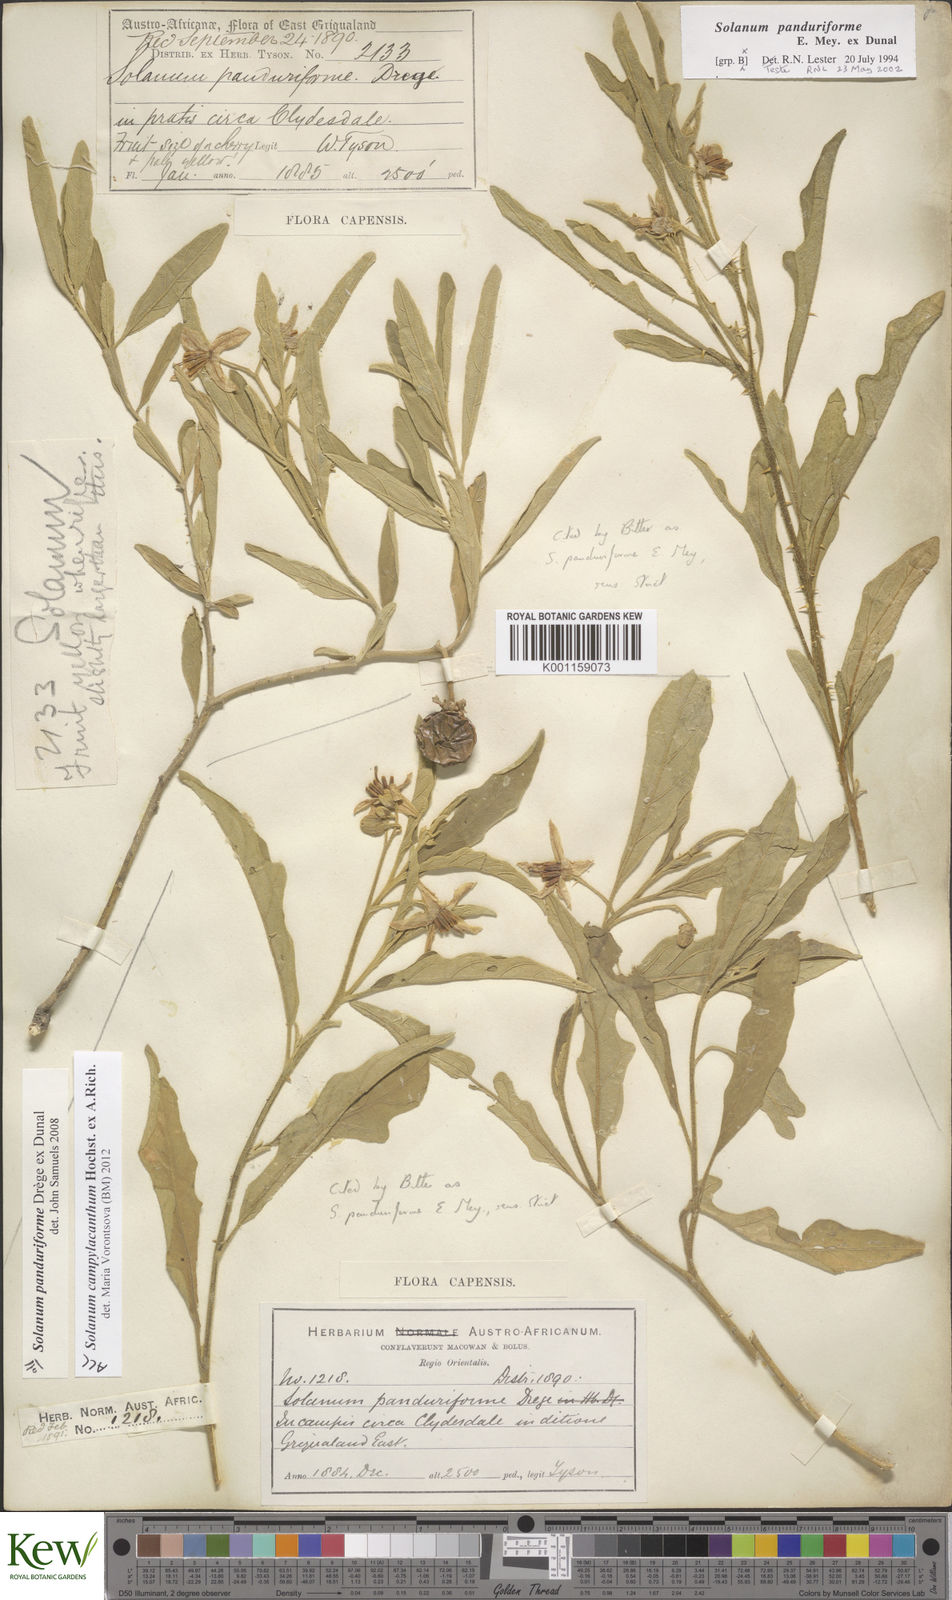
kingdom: Plantae
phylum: Tracheophyta
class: Magnoliopsida
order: Solanales
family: Solanaceae
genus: Solanum
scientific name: Solanum campylacanthum
